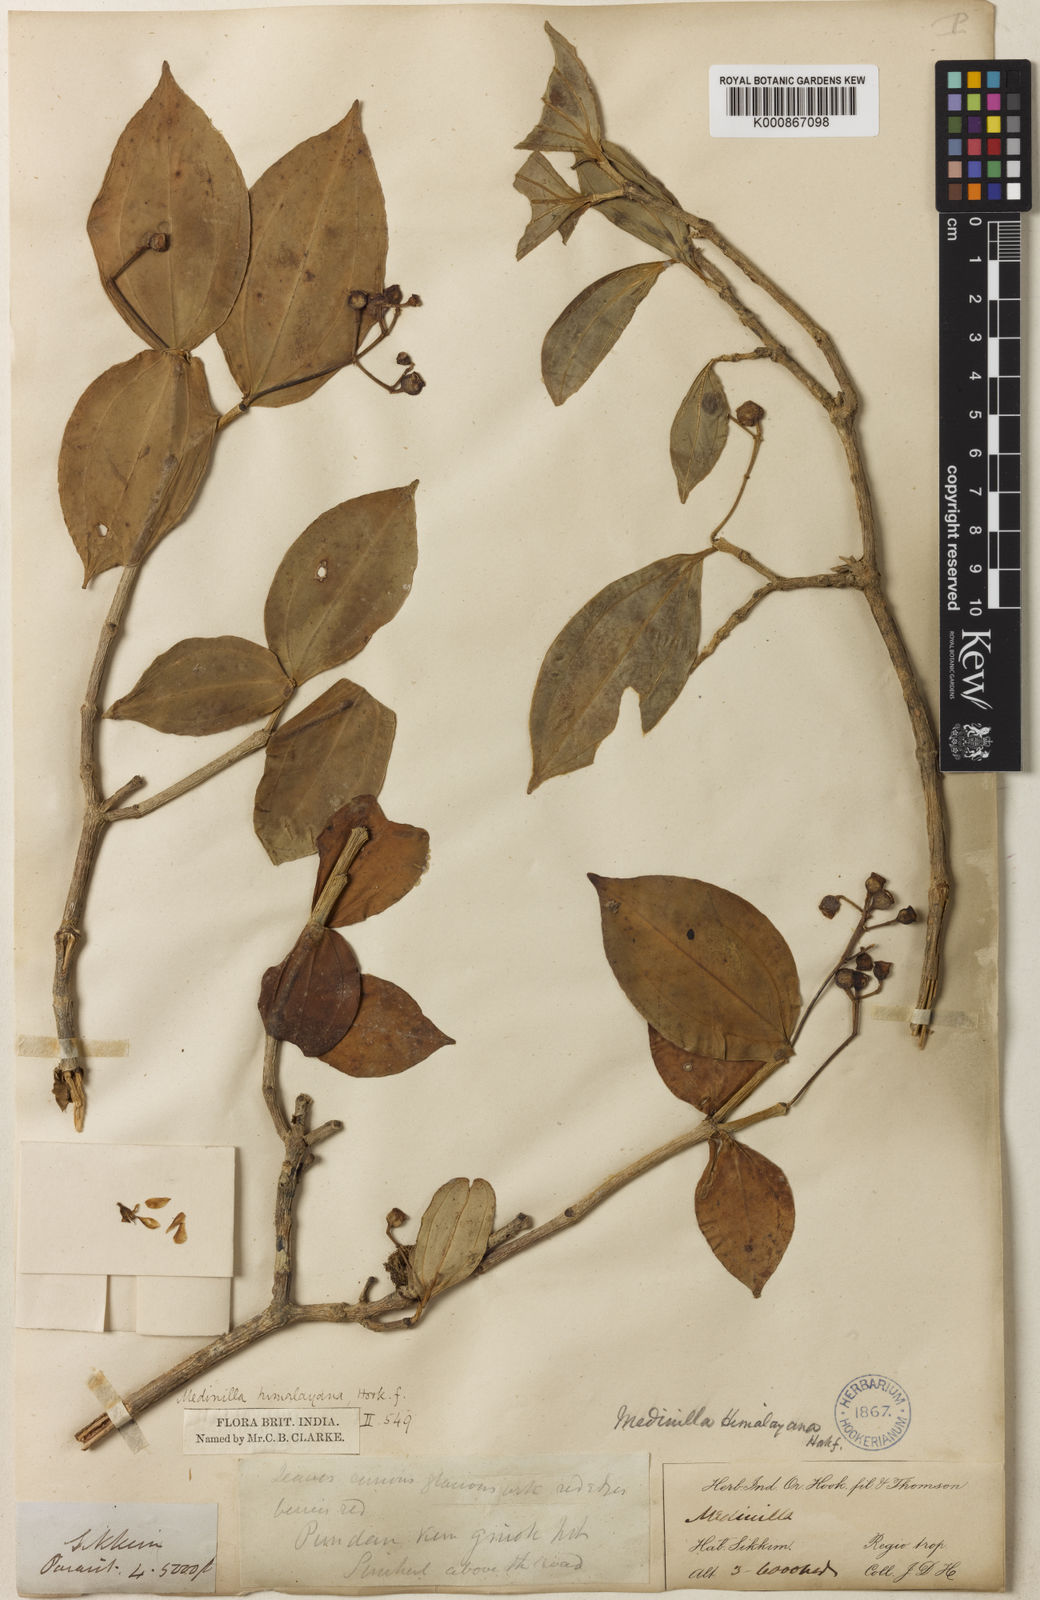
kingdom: Plantae
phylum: Tracheophyta
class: Magnoliopsida
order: Myrtales
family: Melastomataceae
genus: Medinilla
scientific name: Medinilla himalayana
